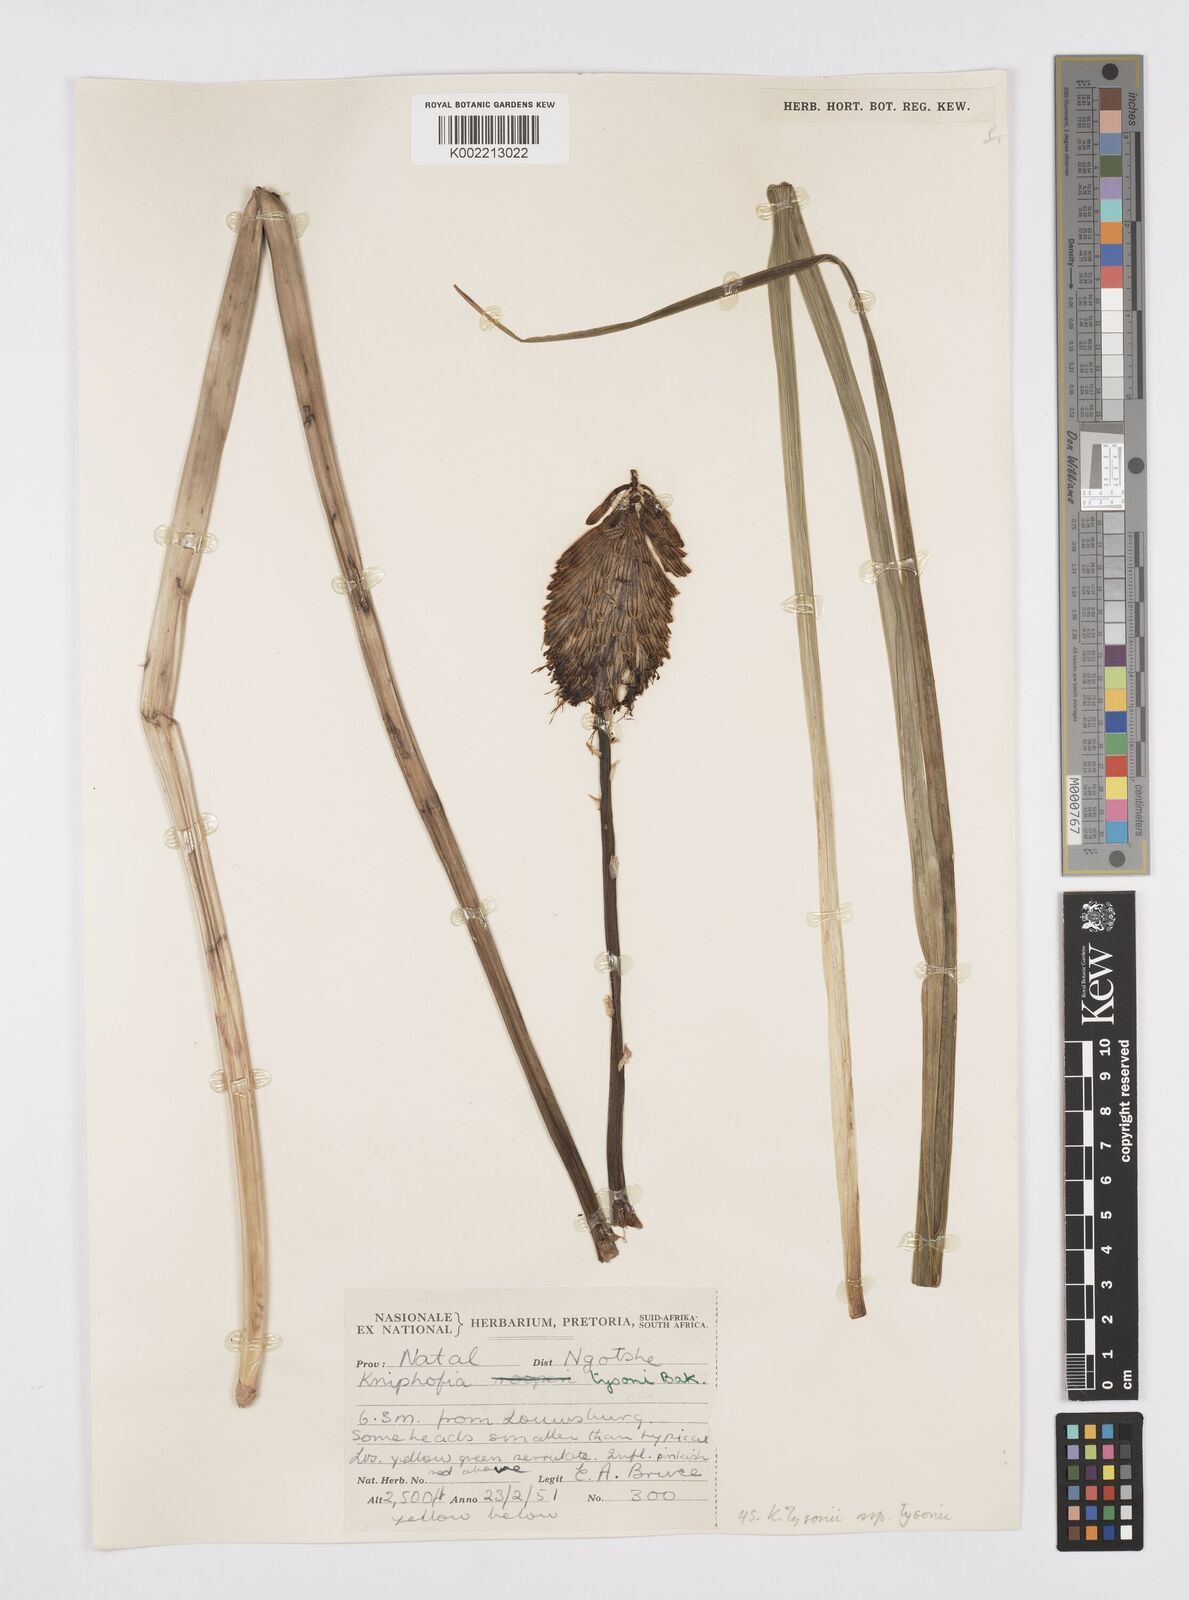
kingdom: Plantae
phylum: Tracheophyta
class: Liliopsida
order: Asparagales
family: Asphodelaceae
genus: Kniphofia
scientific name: Kniphofia tysonii
